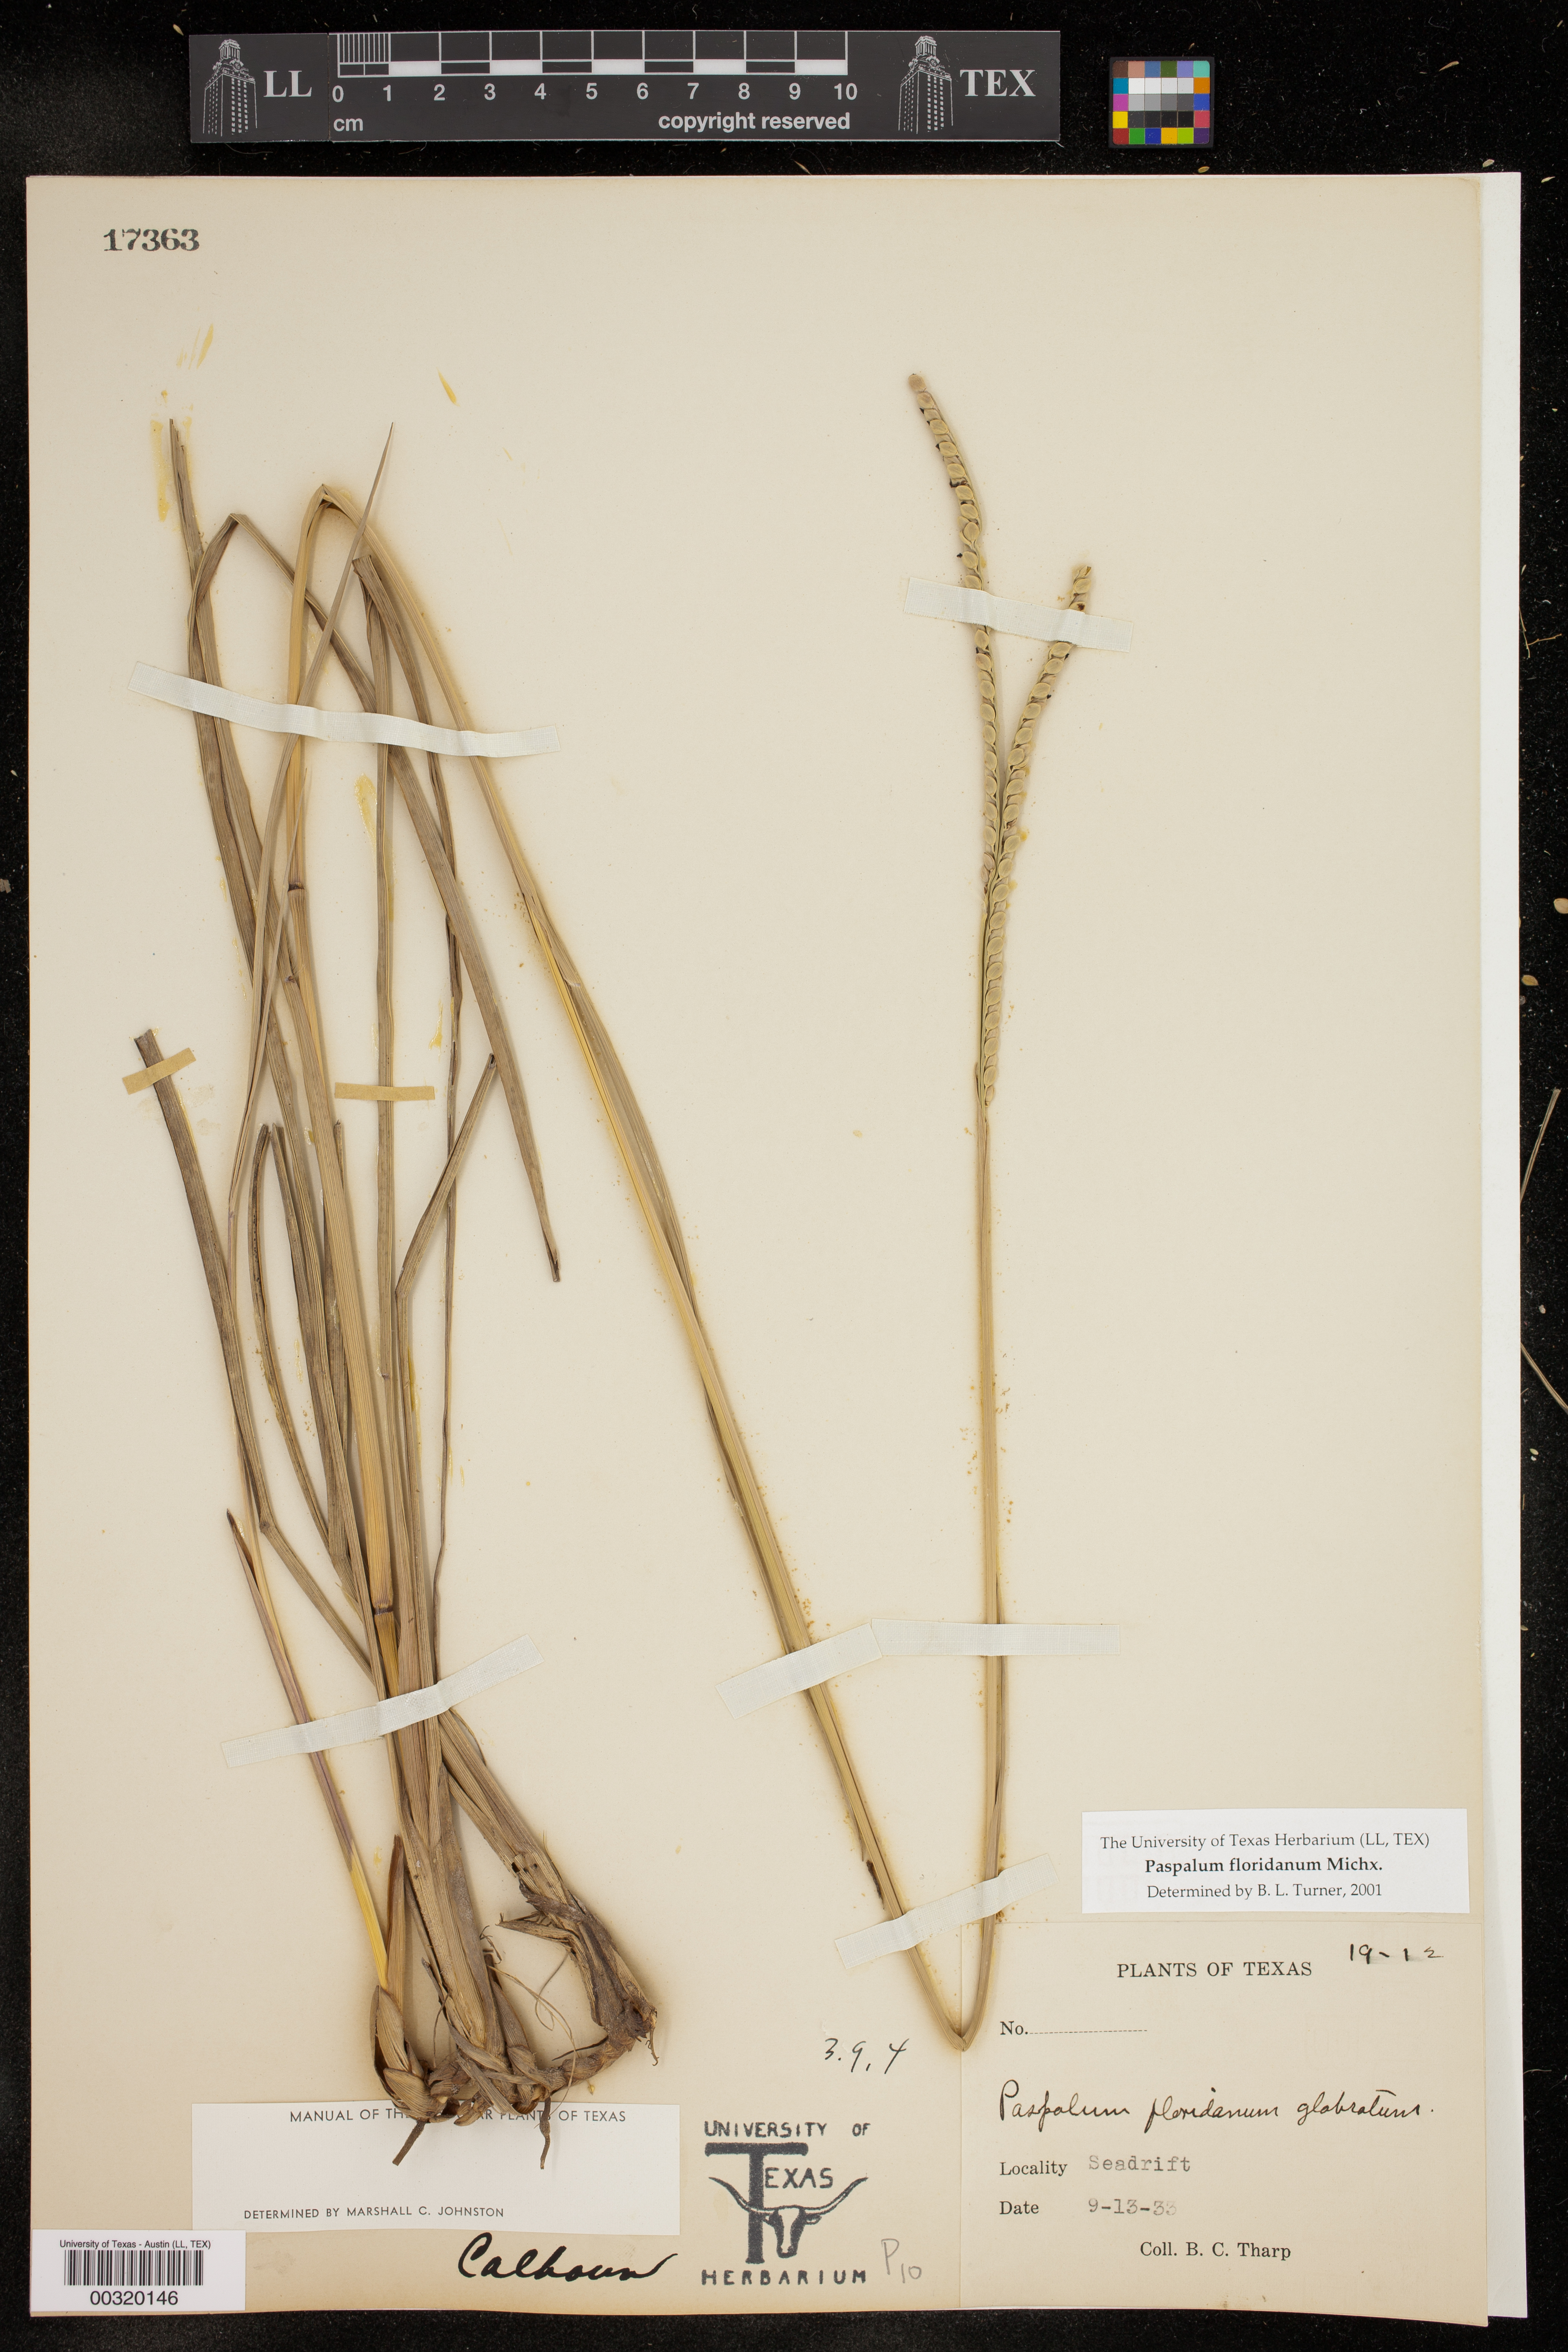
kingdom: Plantae
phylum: Tracheophyta
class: Liliopsida
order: Poales
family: Poaceae
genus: Paspalum
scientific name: Paspalum floridanum
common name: Florida paspalum
